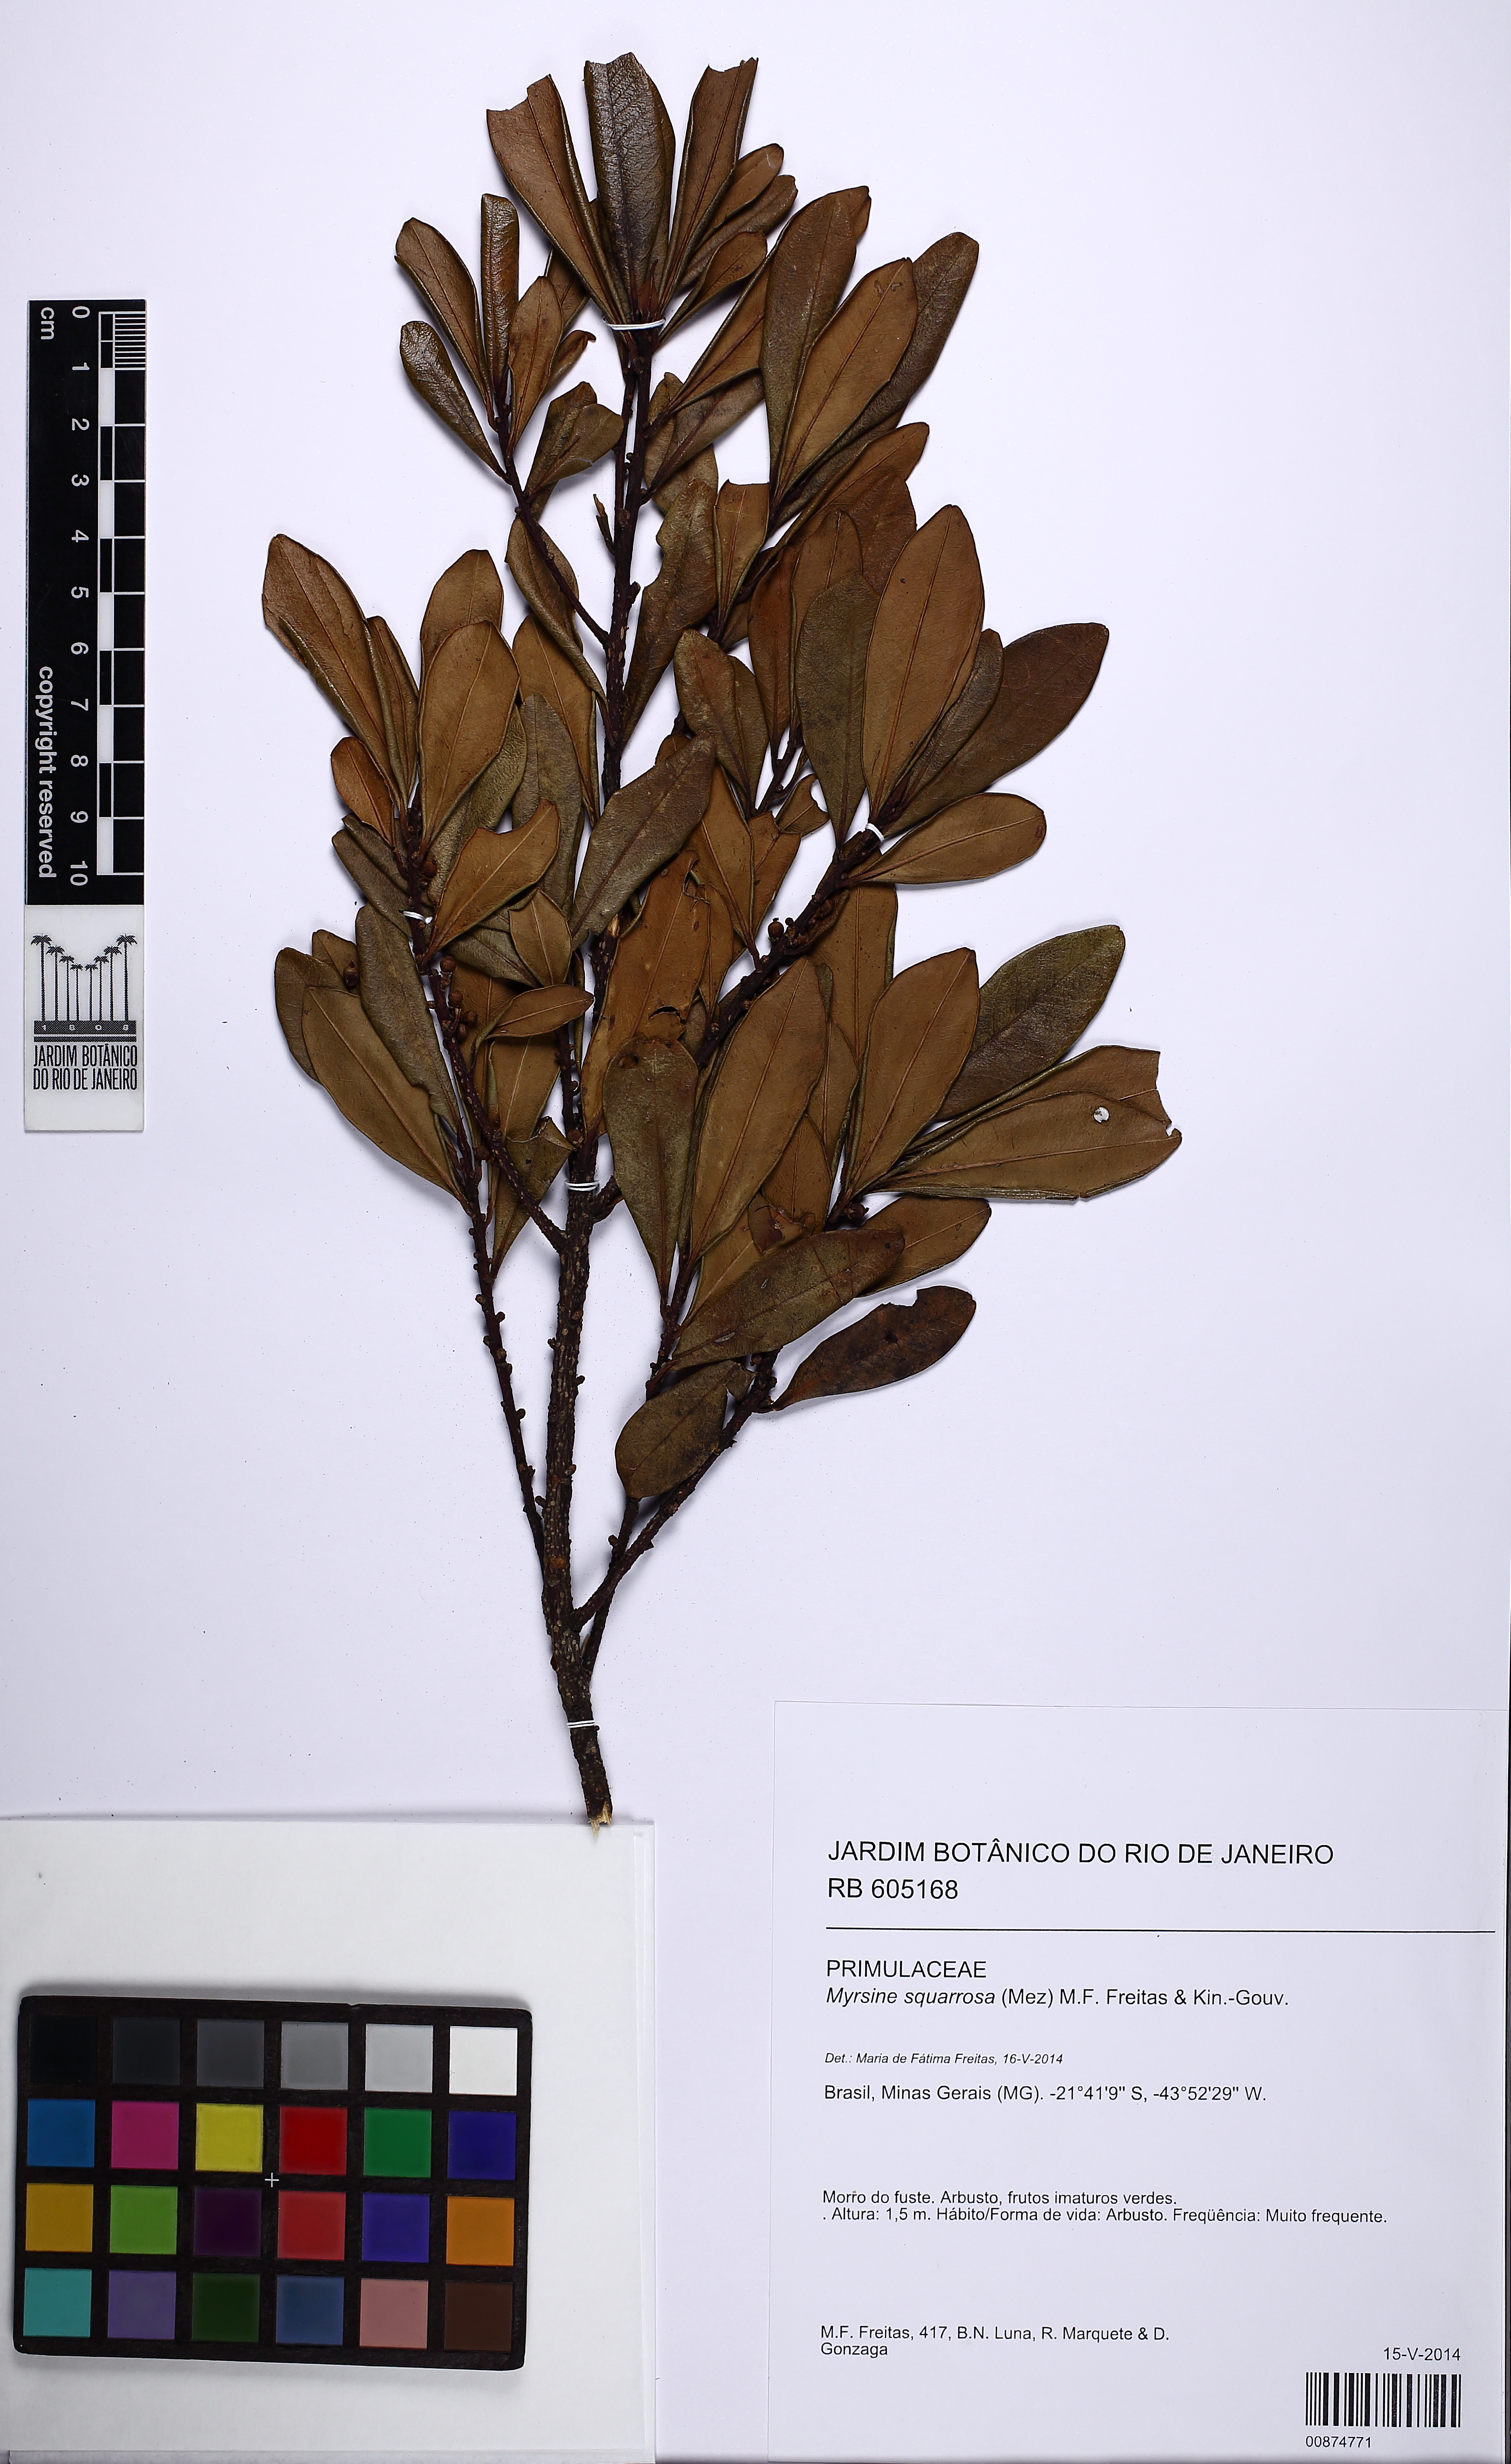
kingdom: Plantae
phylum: Tracheophyta
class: Magnoliopsida
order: Ericales
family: Primulaceae
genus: Myrsine
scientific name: Myrsine squarrosa
